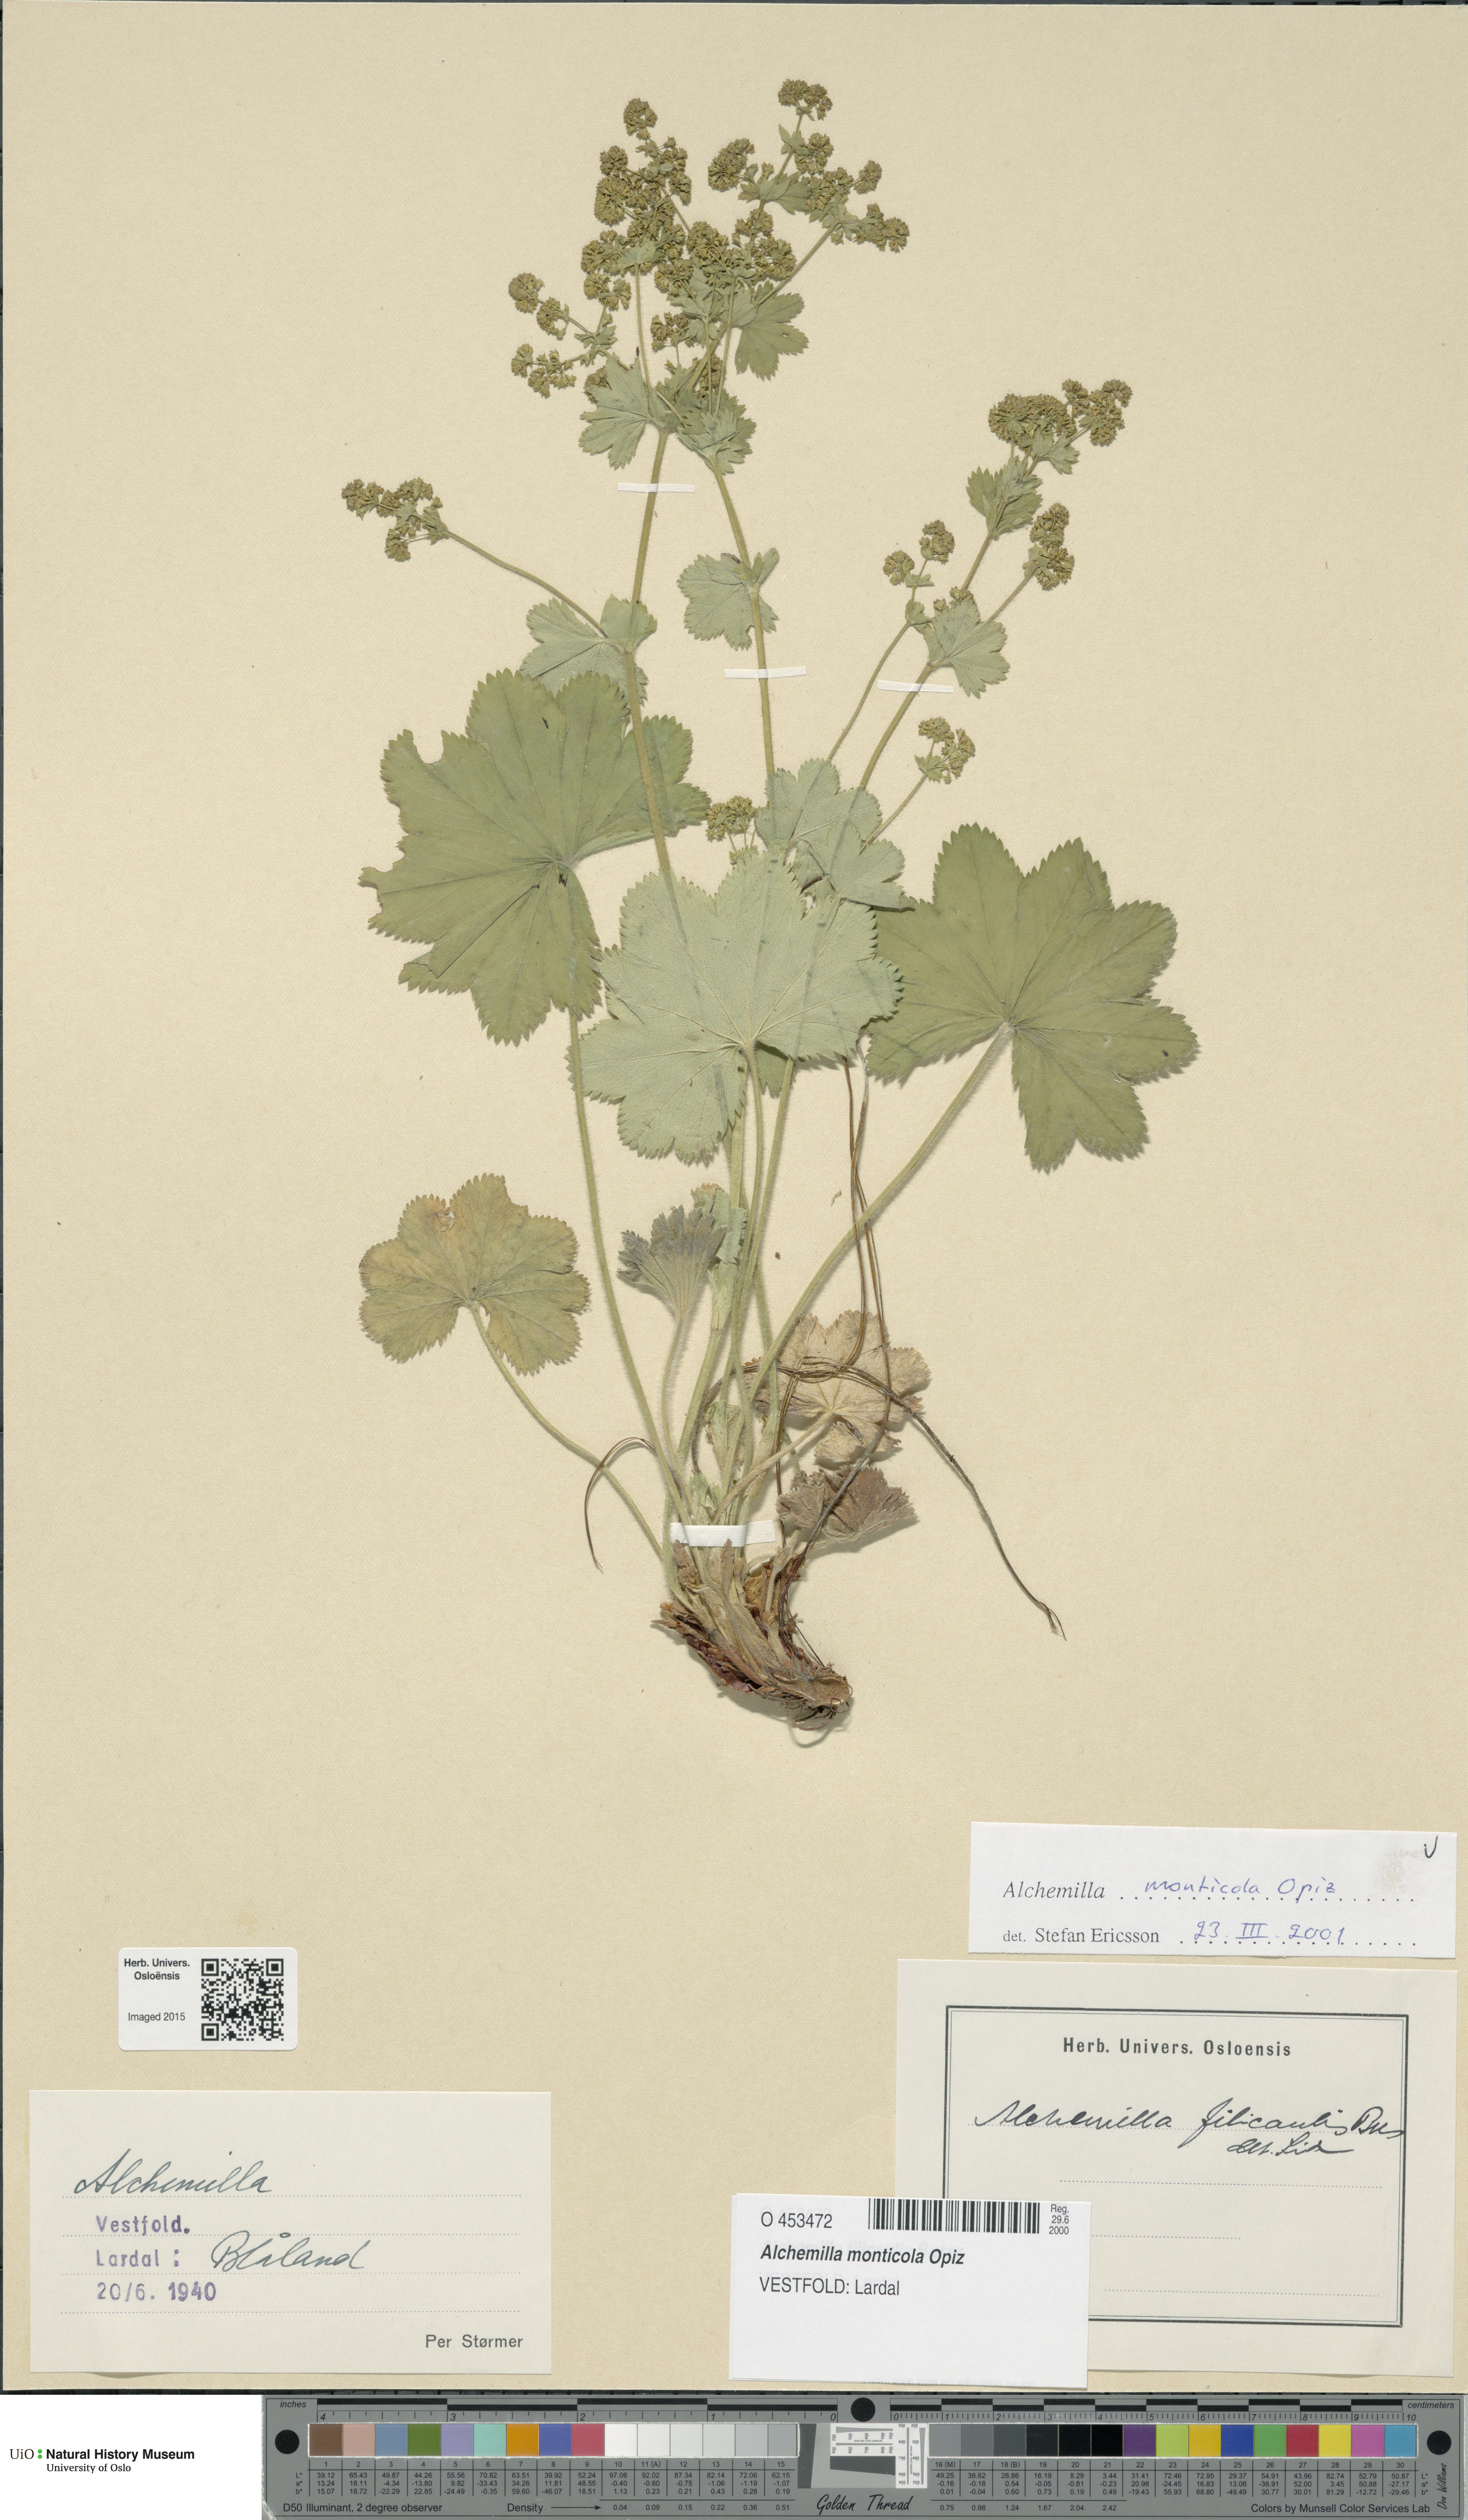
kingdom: Plantae
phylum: Tracheophyta
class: Magnoliopsida
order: Rosales
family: Rosaceae
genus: Alchemilla
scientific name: Alchemilla monticola
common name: Hairy lady's mantle
